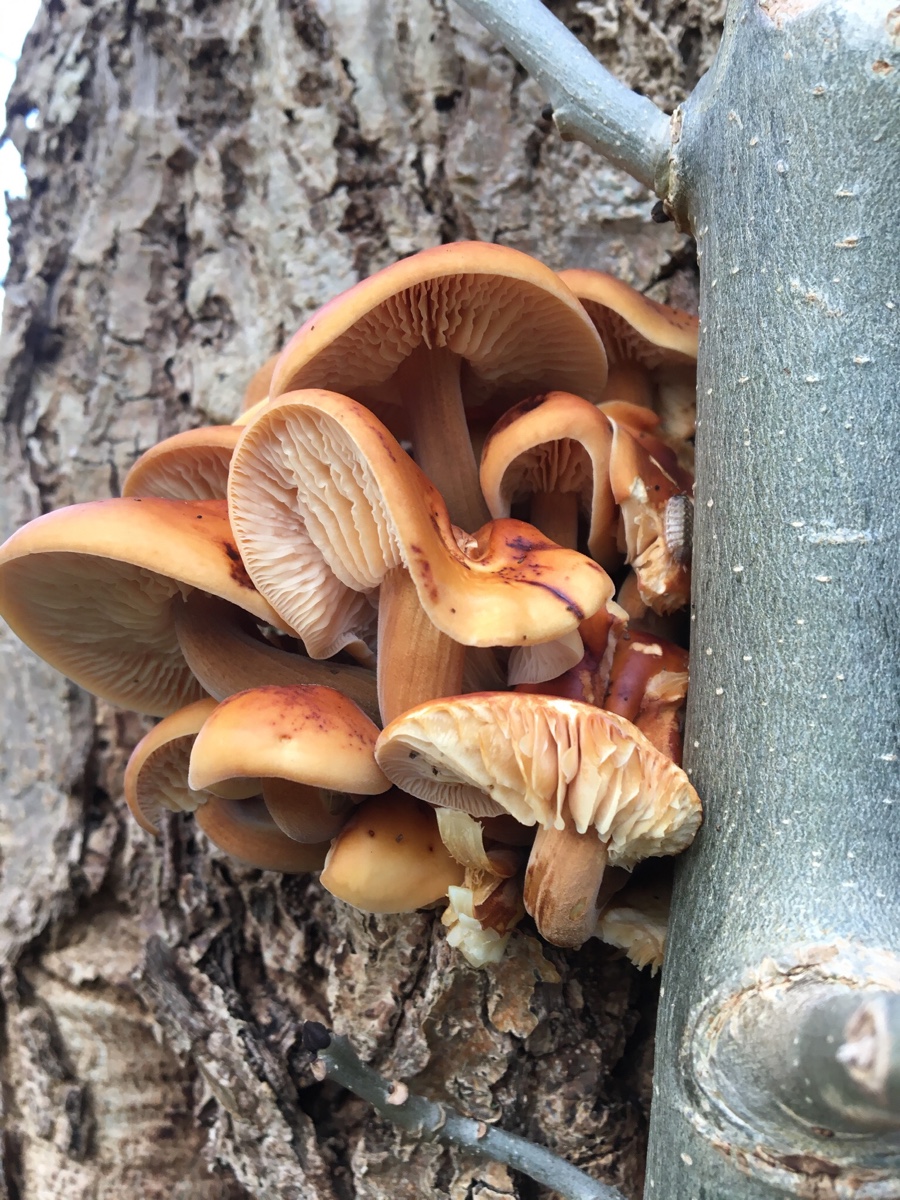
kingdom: Fungi
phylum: Basidiomycota
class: Agaricomycetes
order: Agaricales
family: Physalacriaceae
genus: Flammulina
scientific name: Flammulina velutipes
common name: gul fløjlsfod
